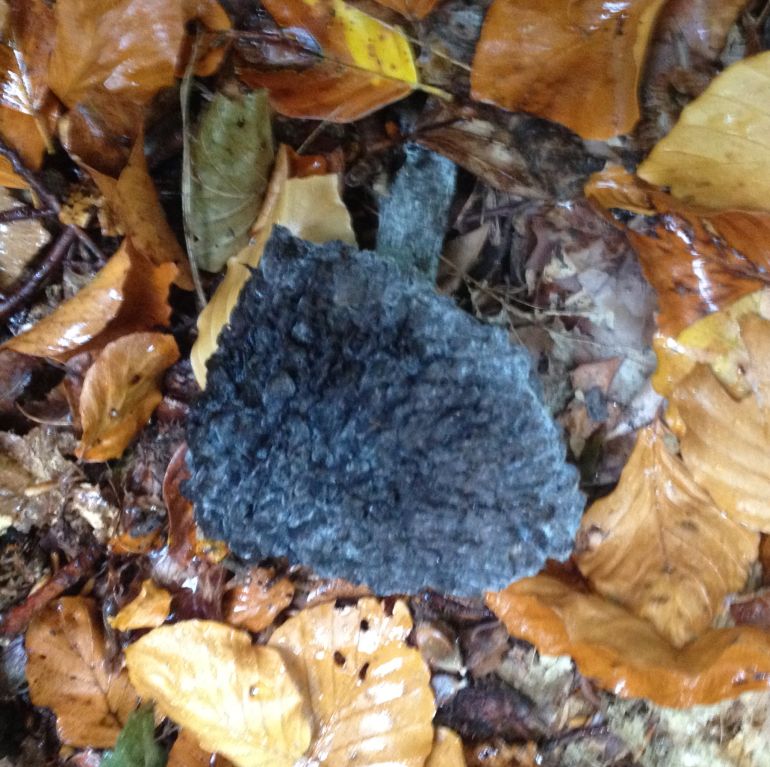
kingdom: Fungi
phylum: Basidiomycota
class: Agaricomycetes
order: Boletales
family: Boletaceae
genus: Strobilomyces
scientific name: Strobilomyces strobilaceus
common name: koglerørhat
